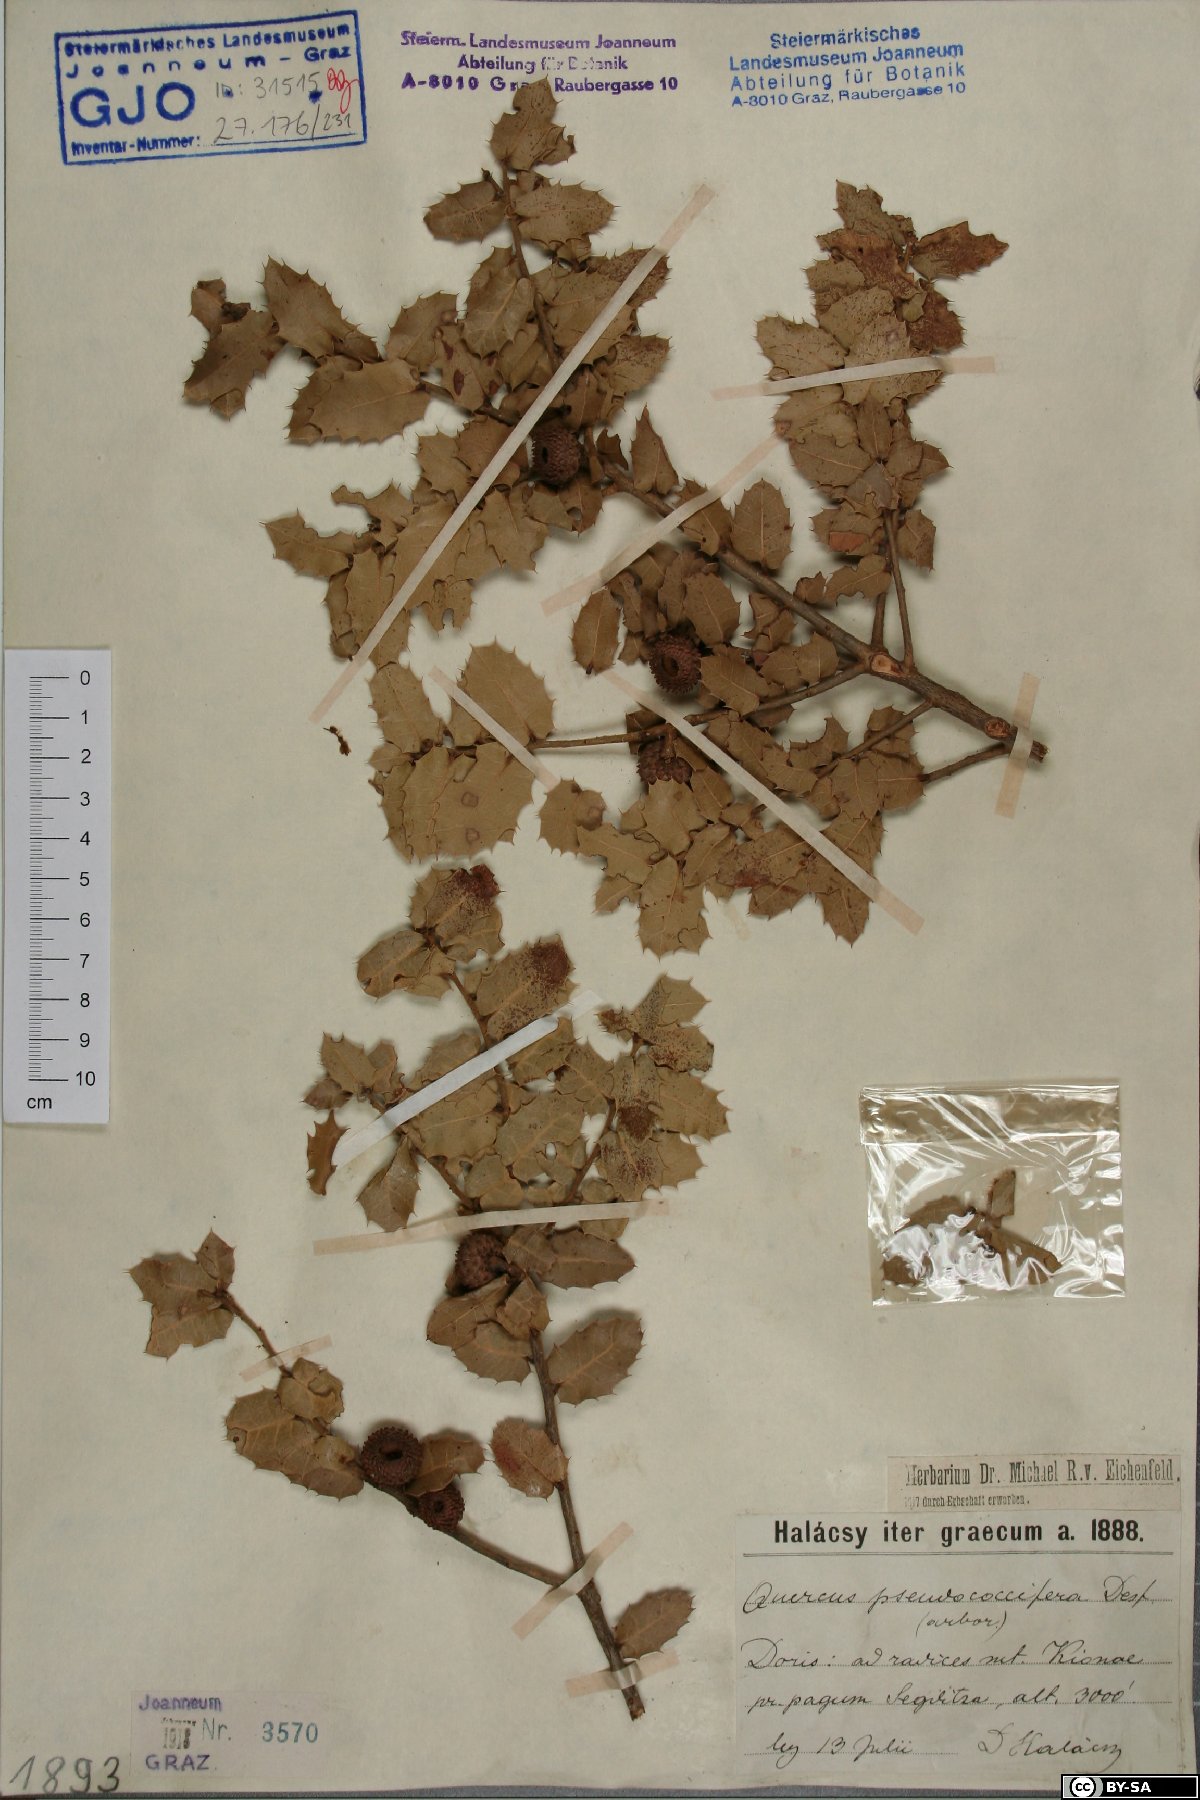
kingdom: Plantae
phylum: Tracheophyta
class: Magnoliopsida
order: Fagales
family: Fagaceae
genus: Quercus
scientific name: Quercus pseudococcifera
